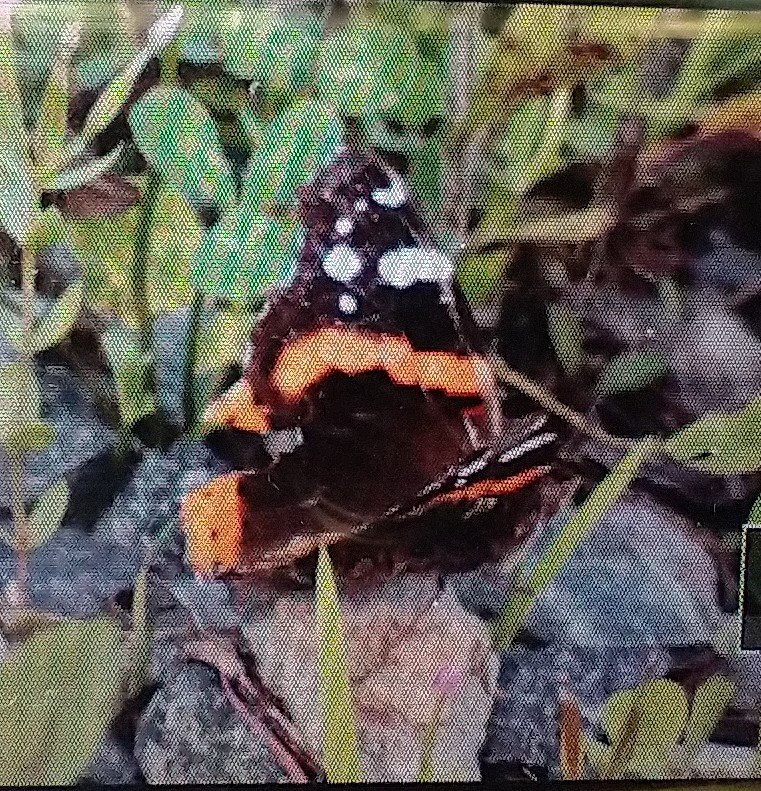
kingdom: Animalia
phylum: Arthropoda
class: Insecta
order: Lepidoptera
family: Nymphalidae
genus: Vanessa
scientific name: Vanessa atalanta
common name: Red Admiral
